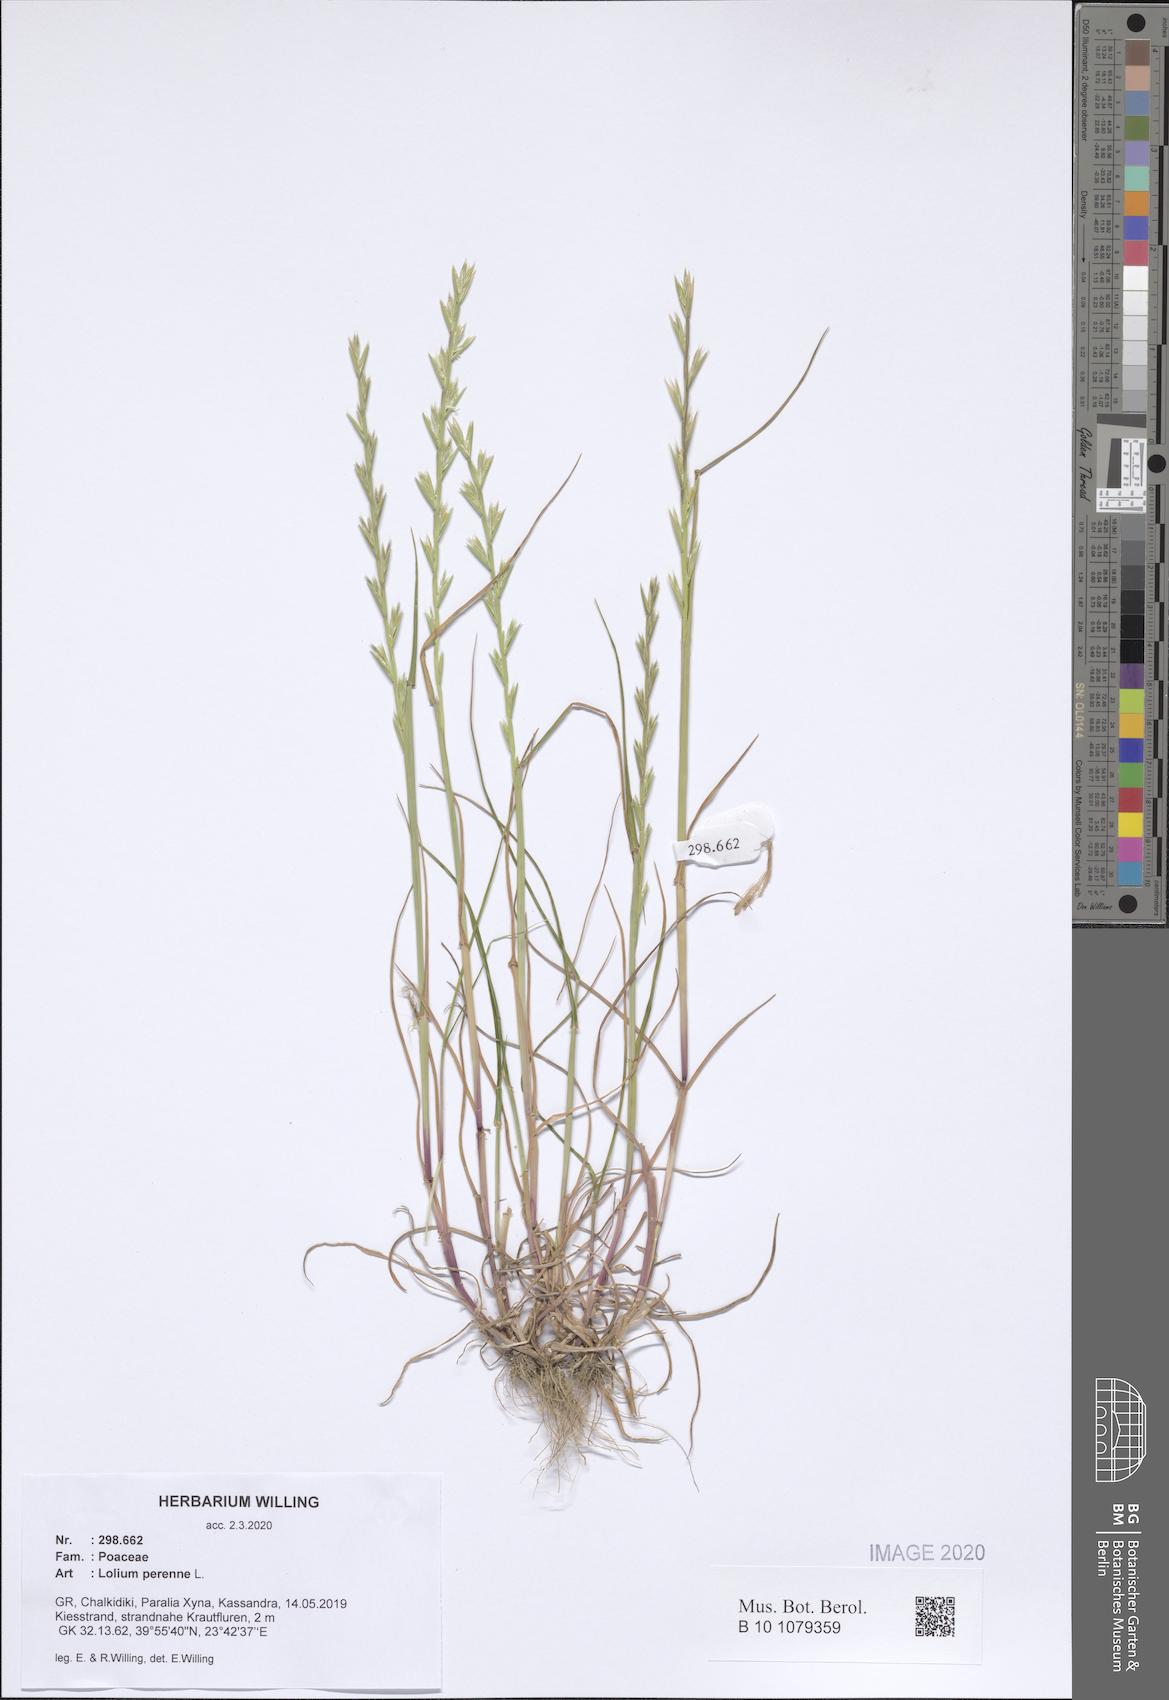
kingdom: Plantae
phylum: Tracheophyta
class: Liliopsida
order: Poales
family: Poaceae
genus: Lolium
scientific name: Lolium perenne
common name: Perennial ryegrass
